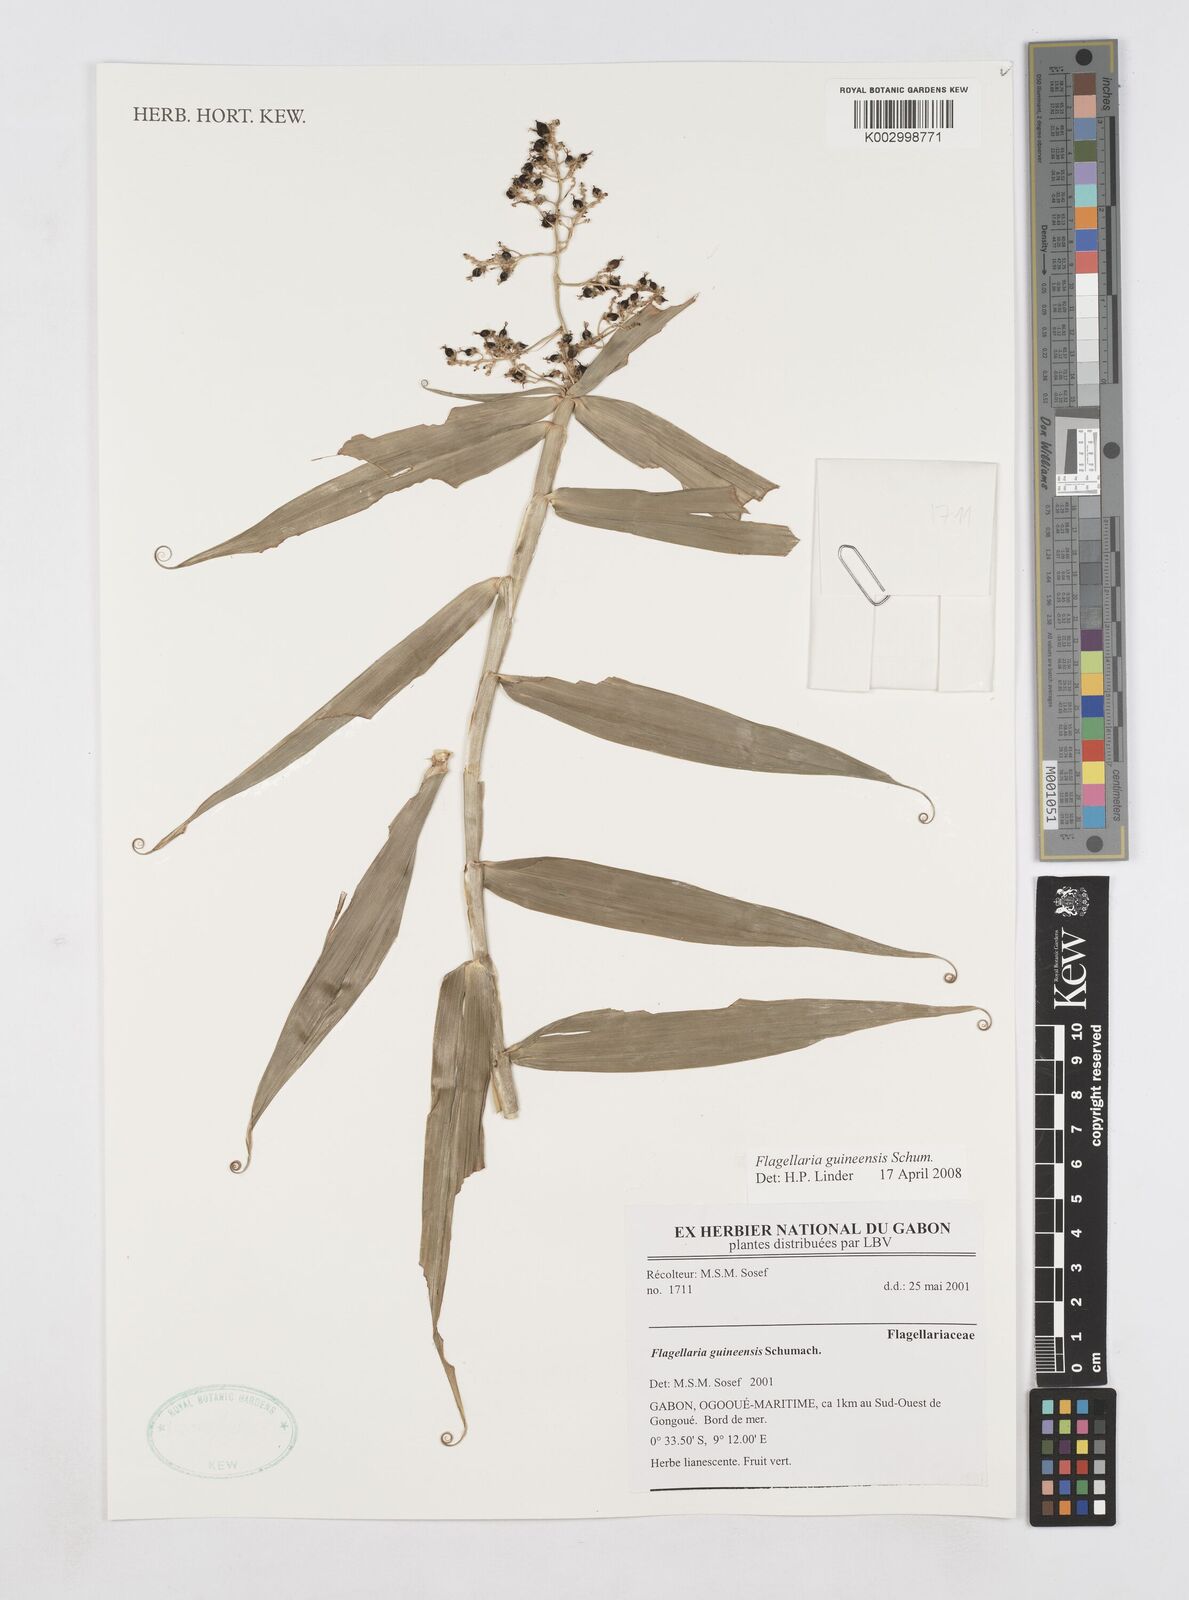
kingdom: Plantae
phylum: Tracheophyta
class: Liliopsida
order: Poales
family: Flagellariaceae
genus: Flagellaria
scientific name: Flagellaria guineensis
